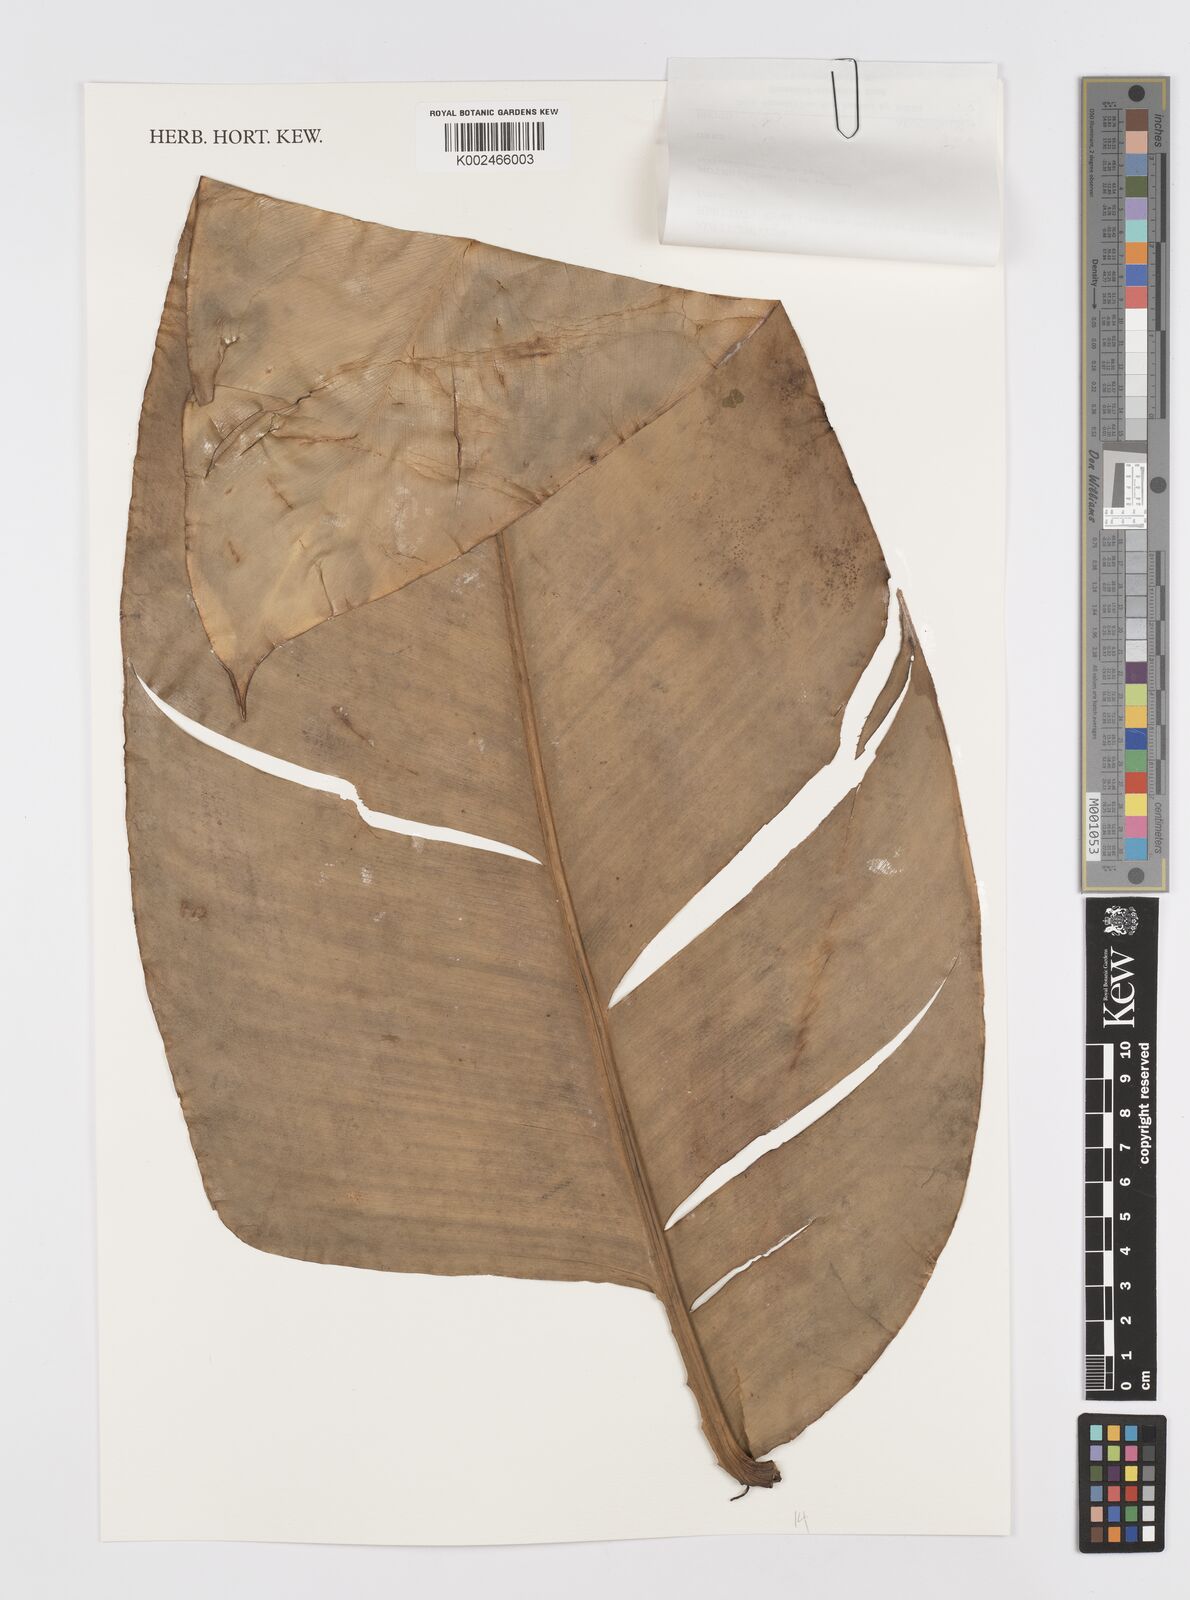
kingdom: Plantae
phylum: Tracheophyta
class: Liliopsida
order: Alismatales
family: Araceae
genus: Rhaphidophora
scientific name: Rhaphidophora
